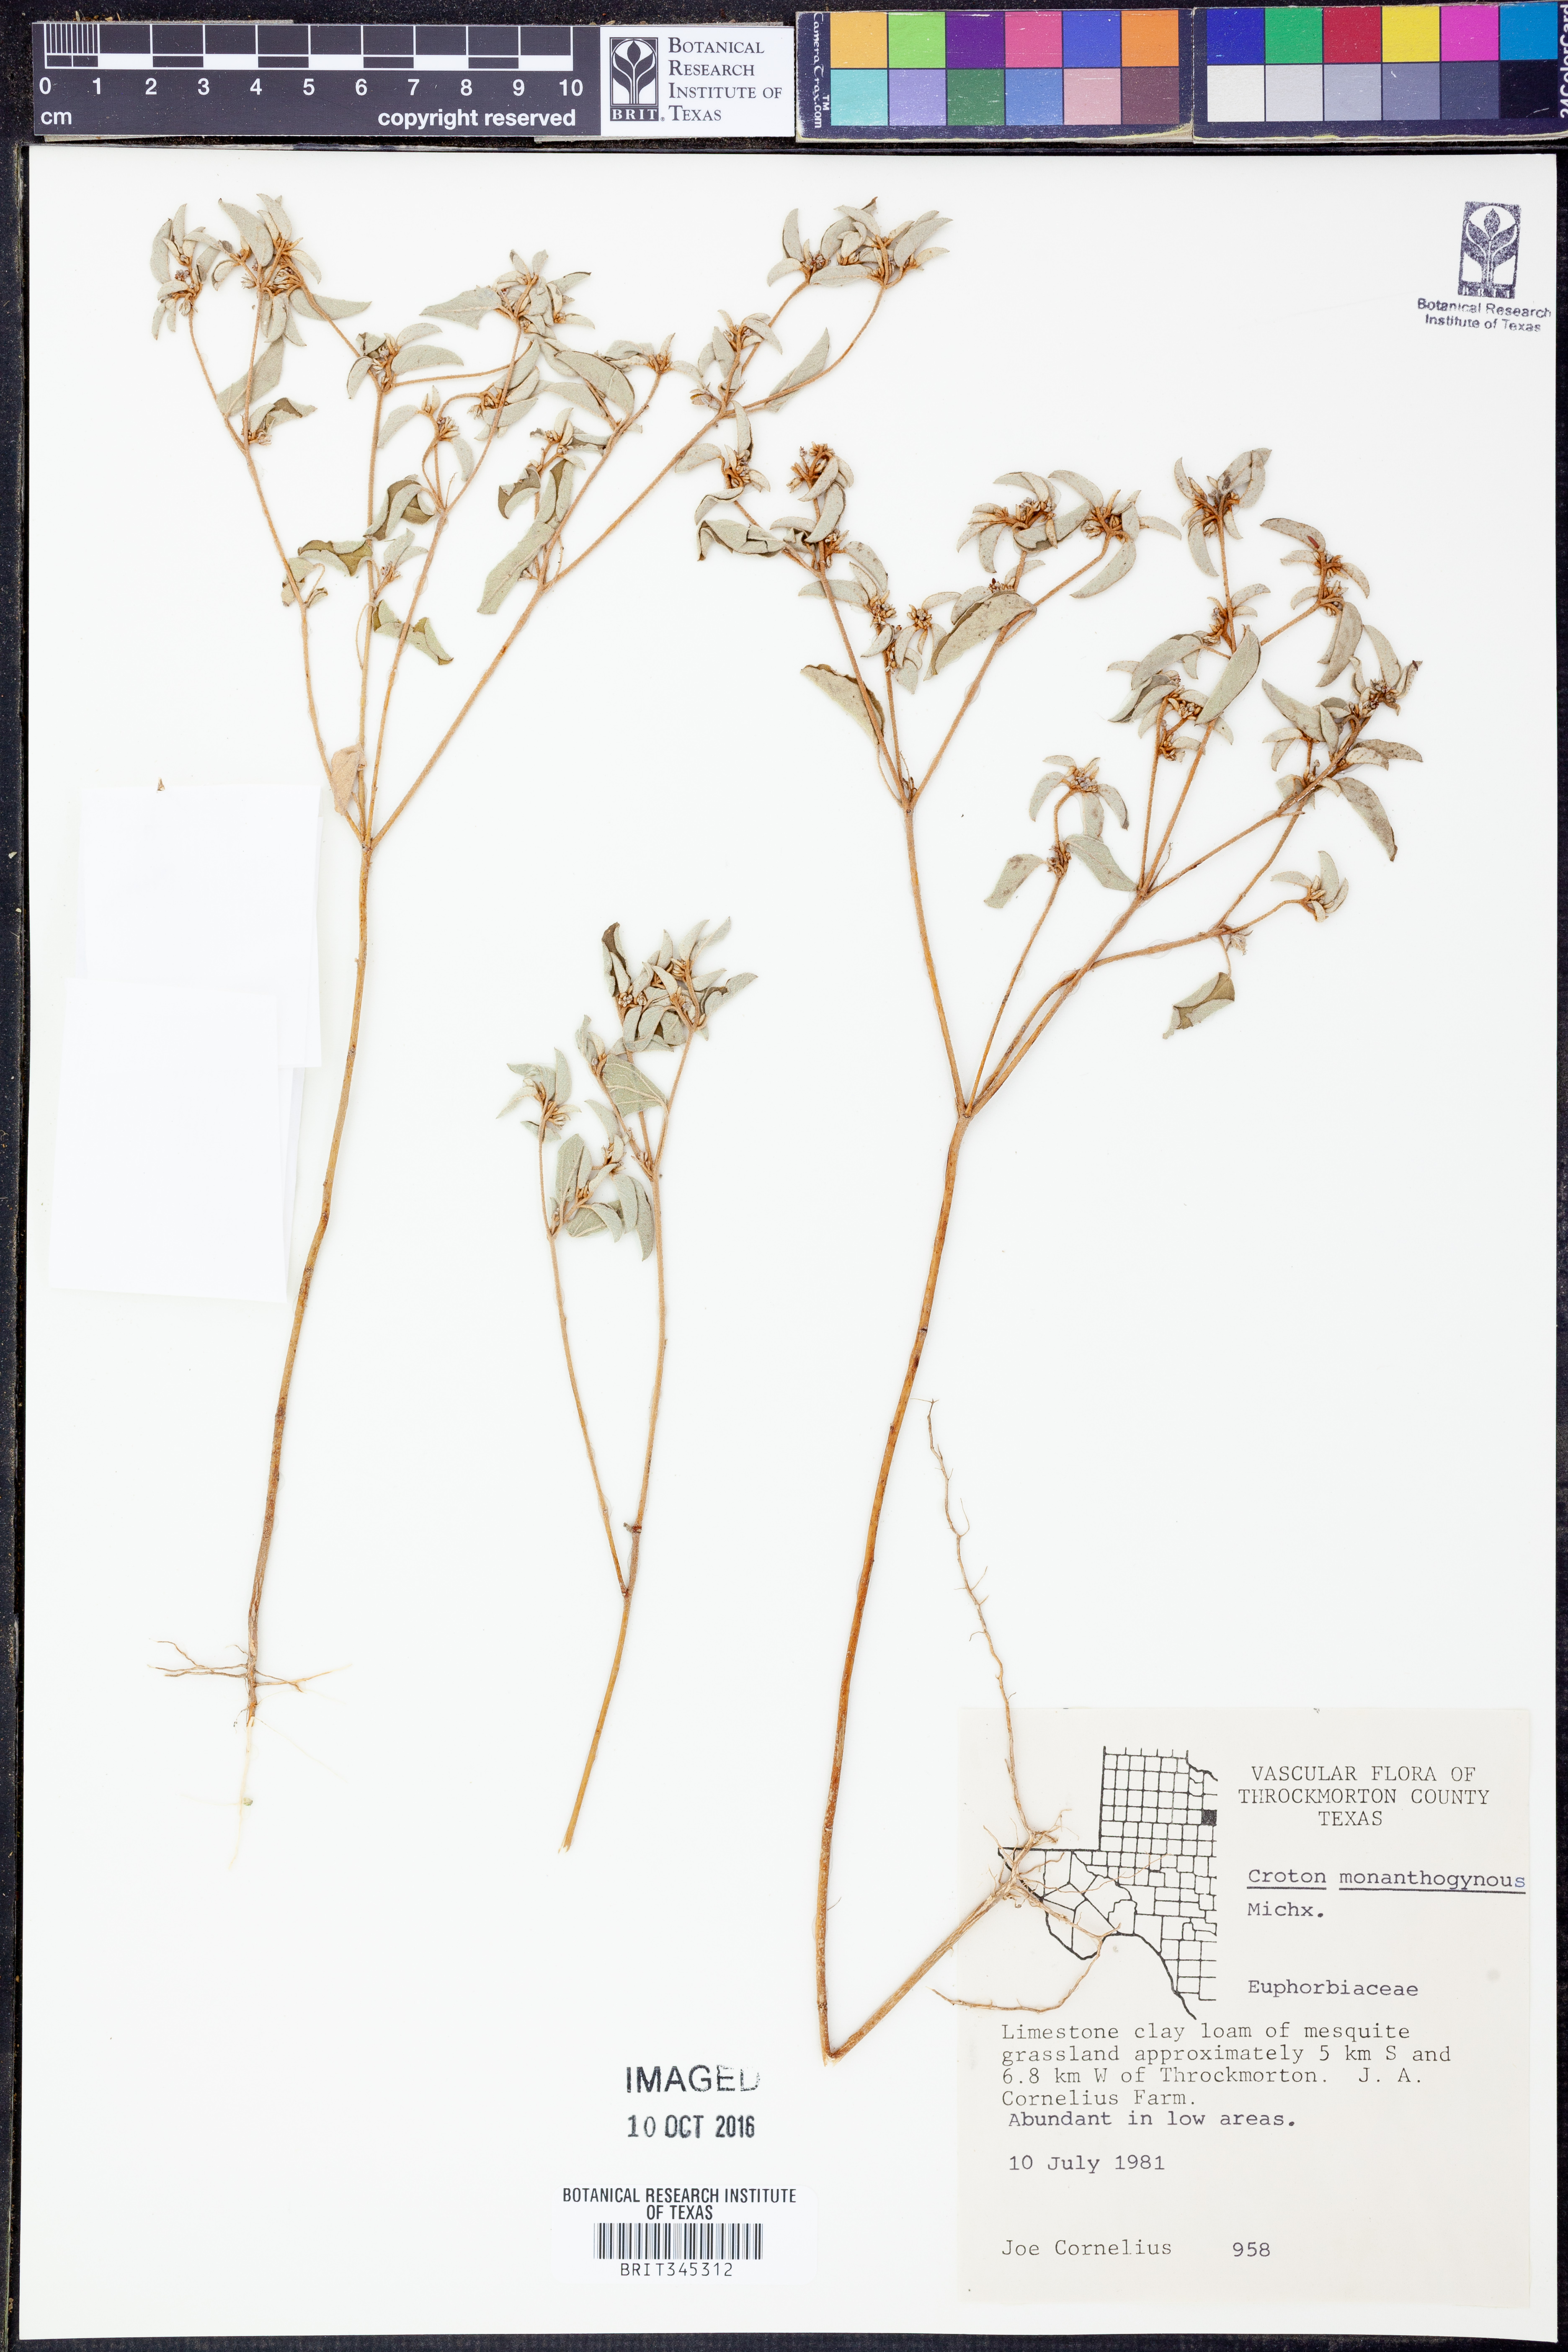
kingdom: Plantae
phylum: Tracheophyta
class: Magnoliopsida
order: Malpighiales
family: Euphorbiaceae
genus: Croton
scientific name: Croton monanthogynus
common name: One-seed croton
